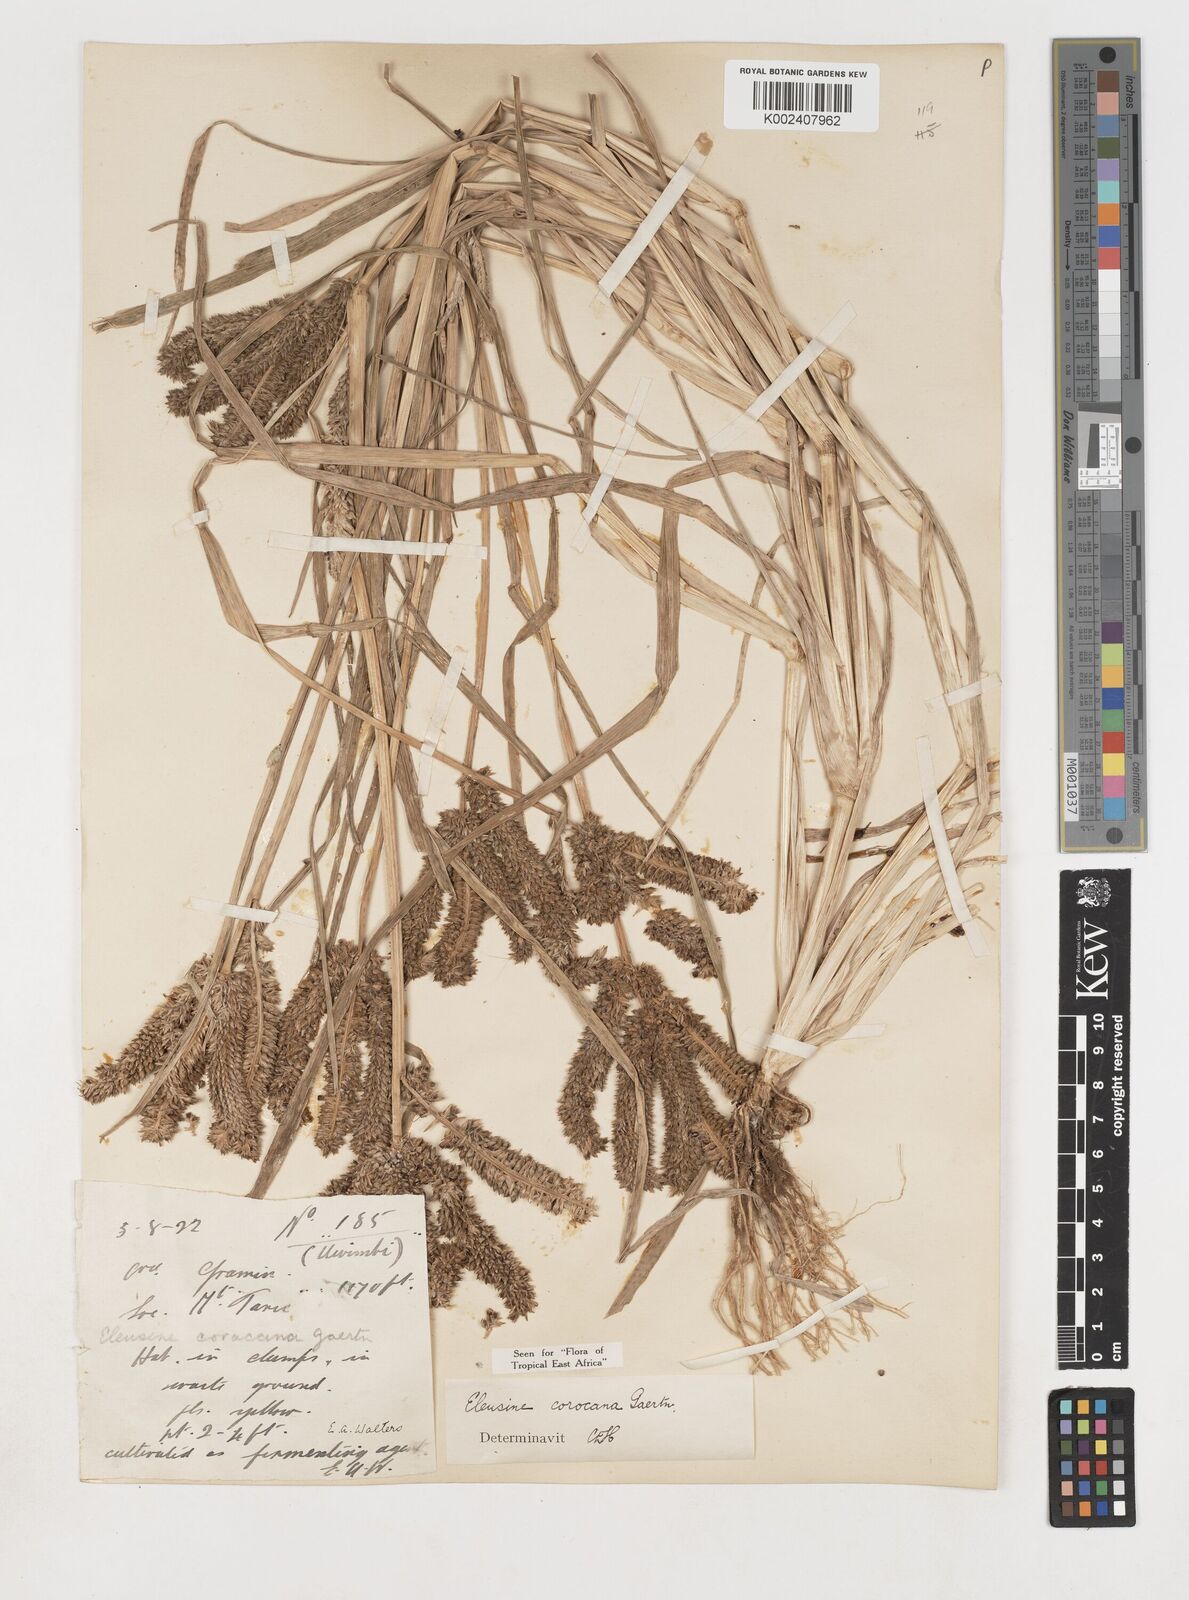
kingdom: Plantae
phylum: Tracheophyta
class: Liliopsida
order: Poales
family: Poaceae
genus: Eleusine
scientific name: Eleusine coracana
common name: Finger millet
